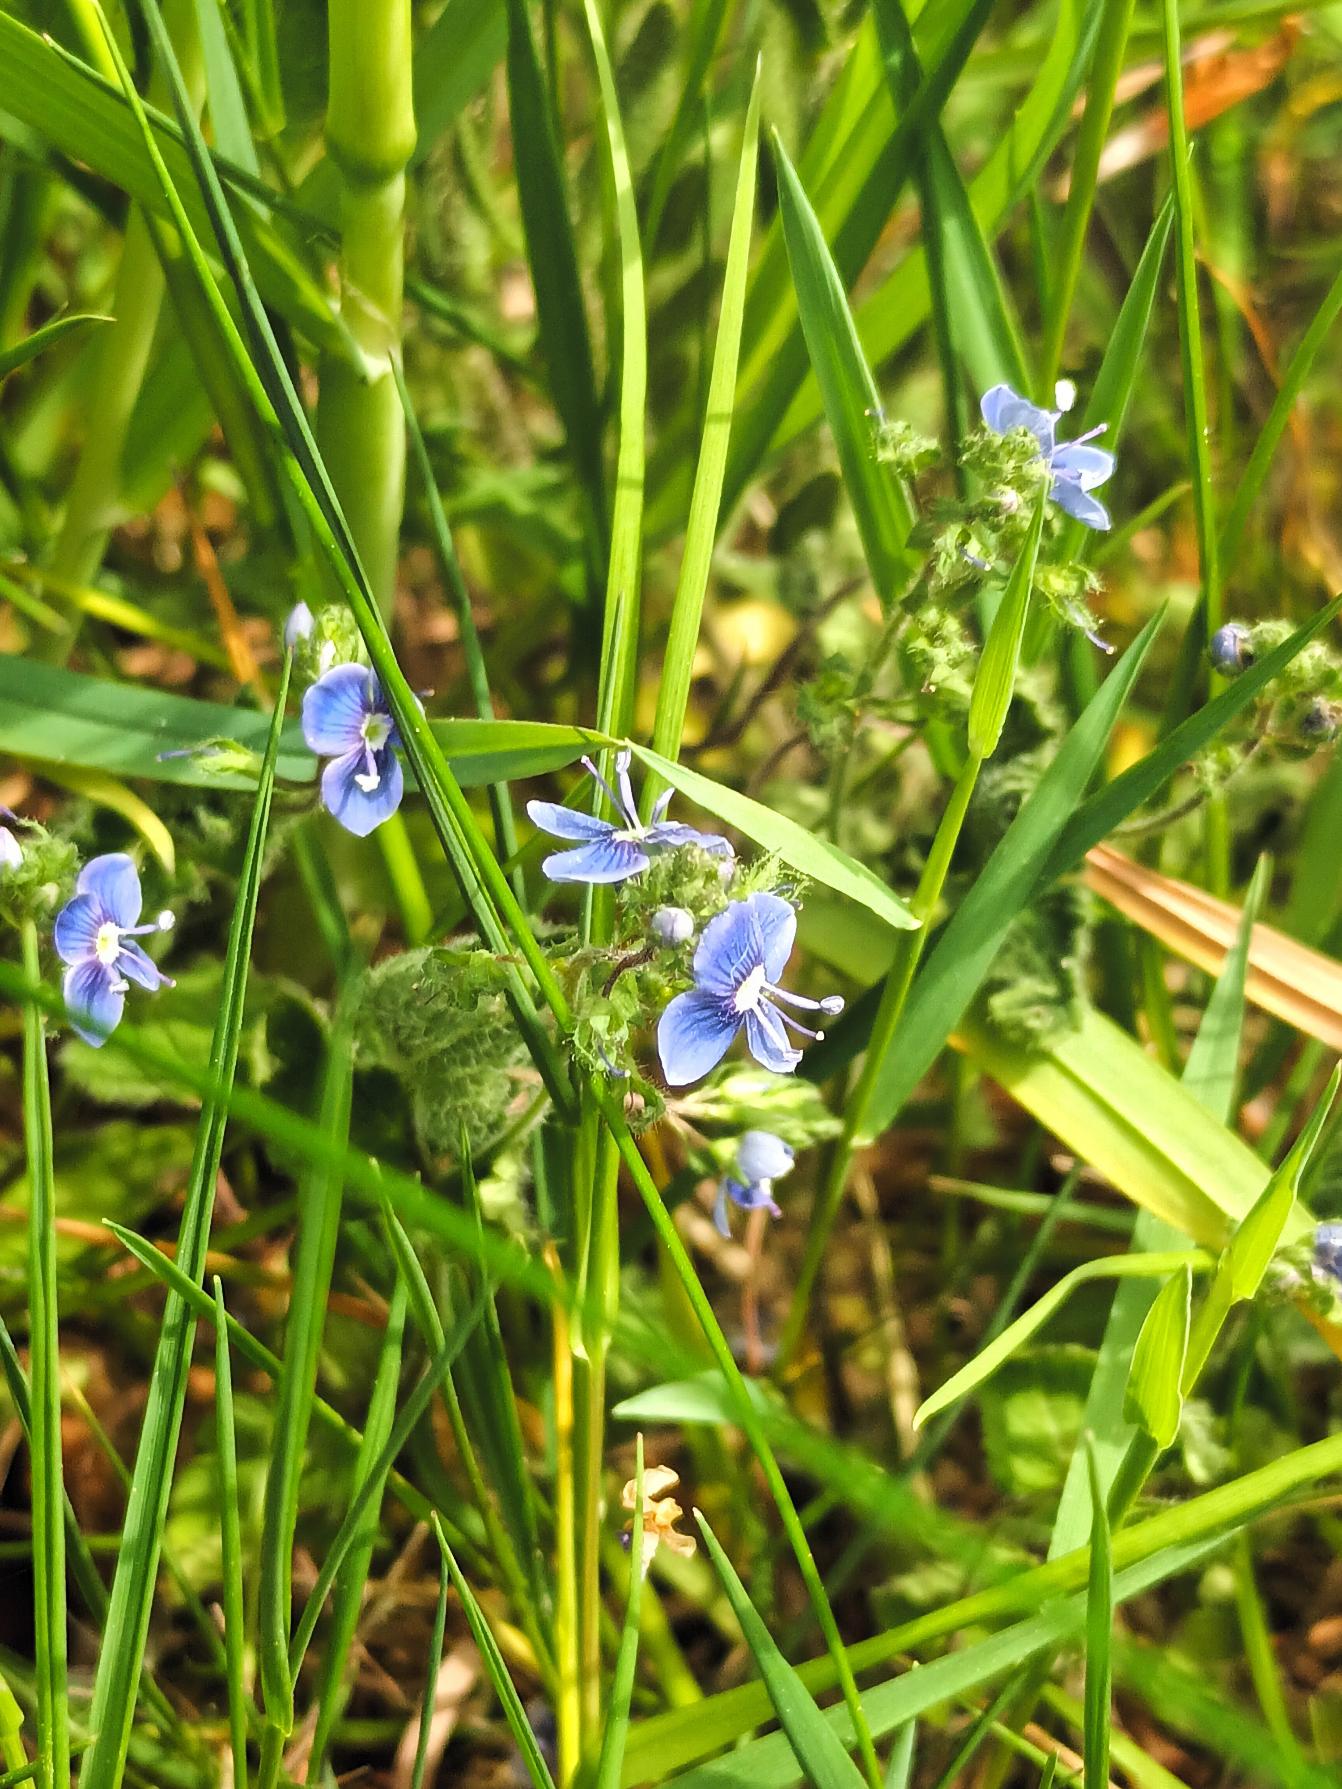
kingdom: Plantae
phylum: Tracheophyta
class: Magnoliopsida
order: Lamiales
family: Plantaginaceae
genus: Veronica
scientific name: Veronica chamaedrys
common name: Tveskægget ærenpris
